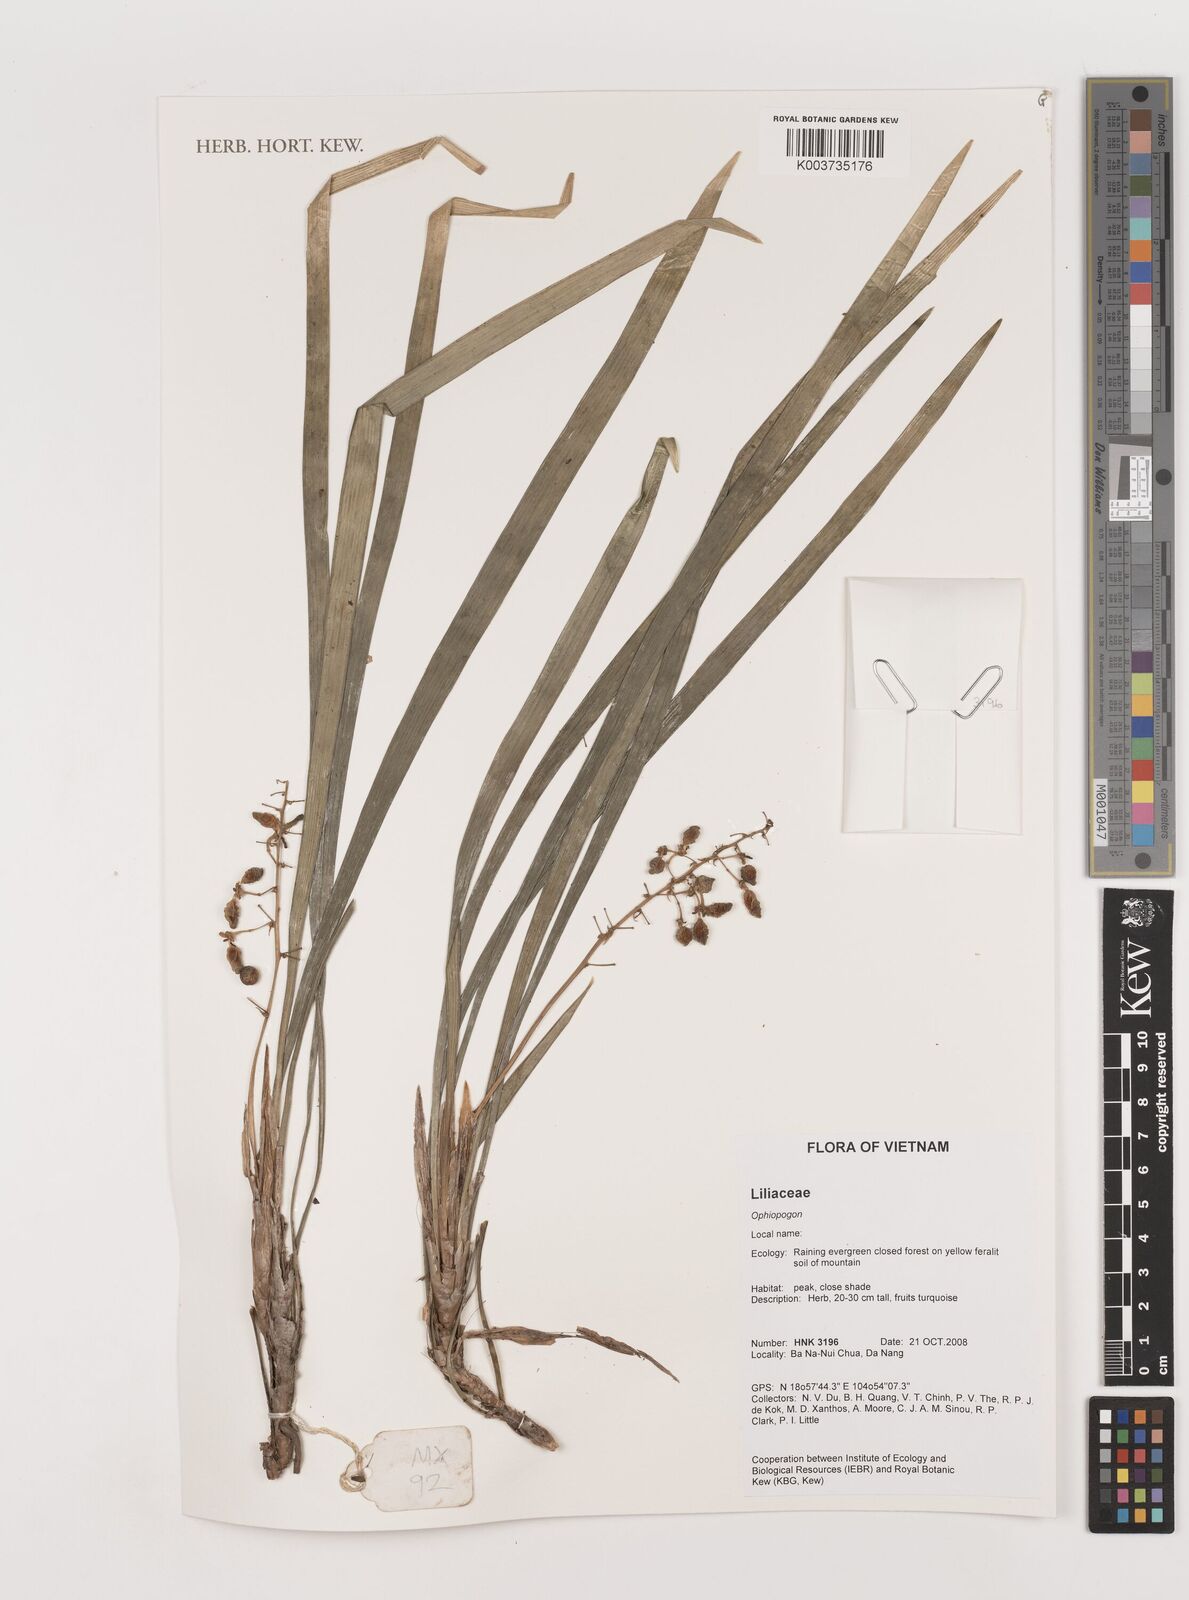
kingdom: Plantae
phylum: Tracheophyta
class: Liliopsida
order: Asparagales
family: Asparagaceae
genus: Ophiopogon
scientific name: Ophiopogon
